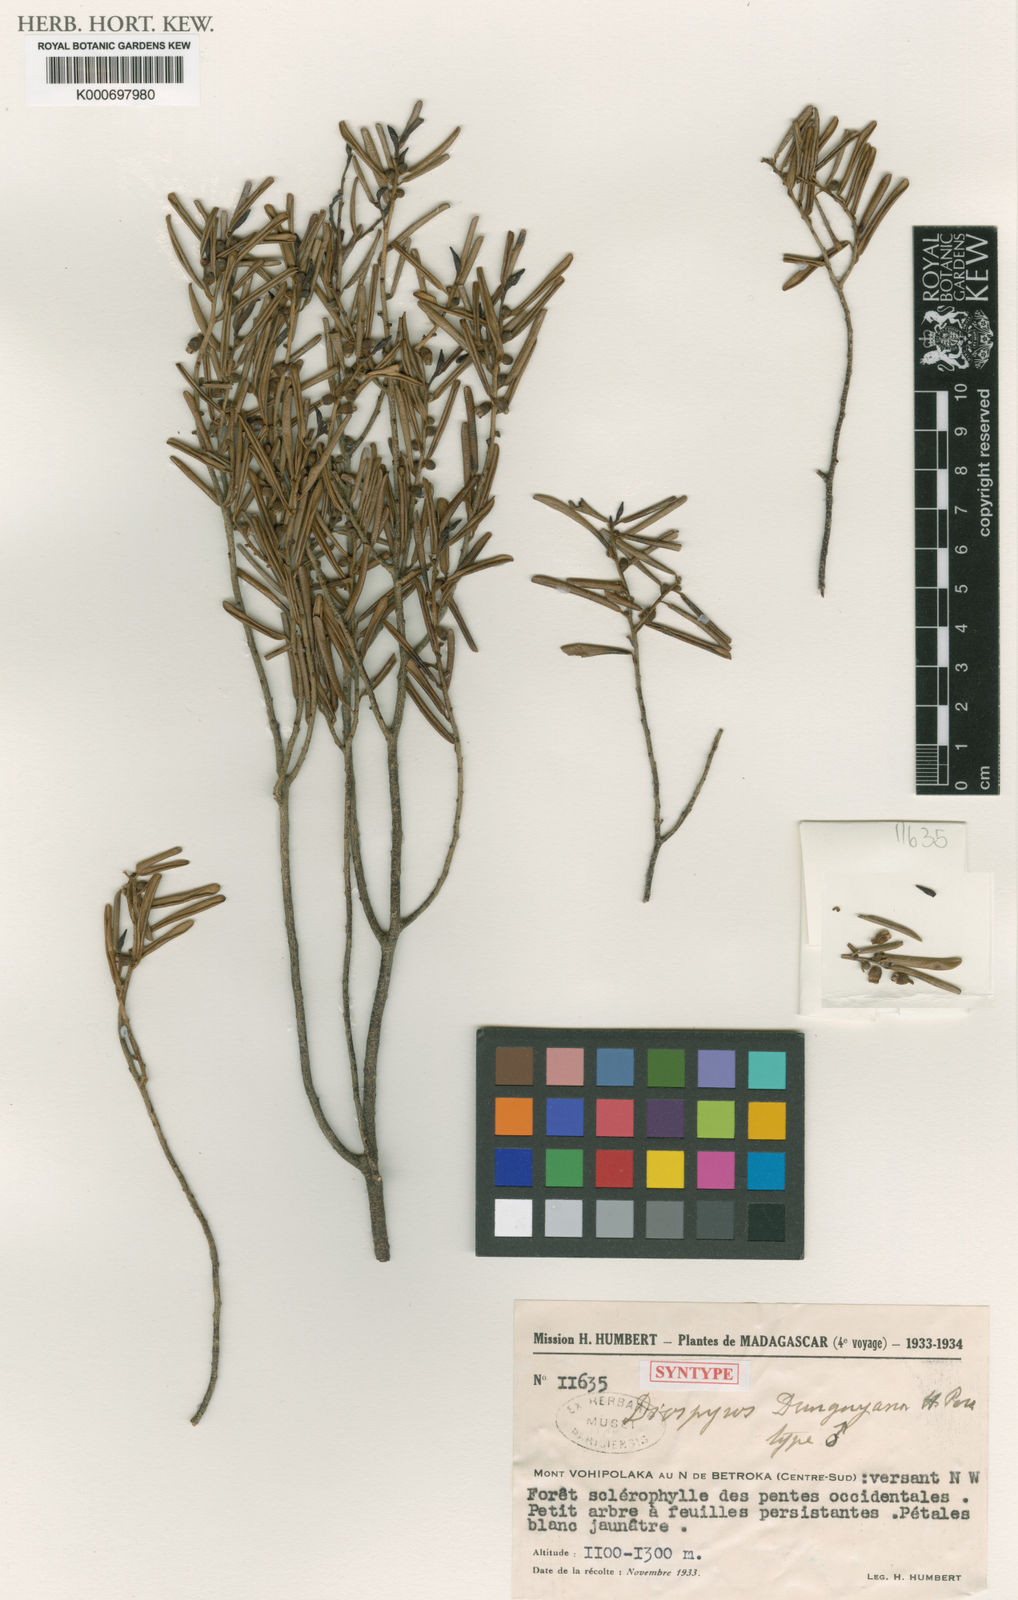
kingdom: Plantae
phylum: Tracheophyta
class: Magnoliopsida
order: Ericales
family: Ebenaceae
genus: Diospyros
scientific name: Diospyros danguyana
